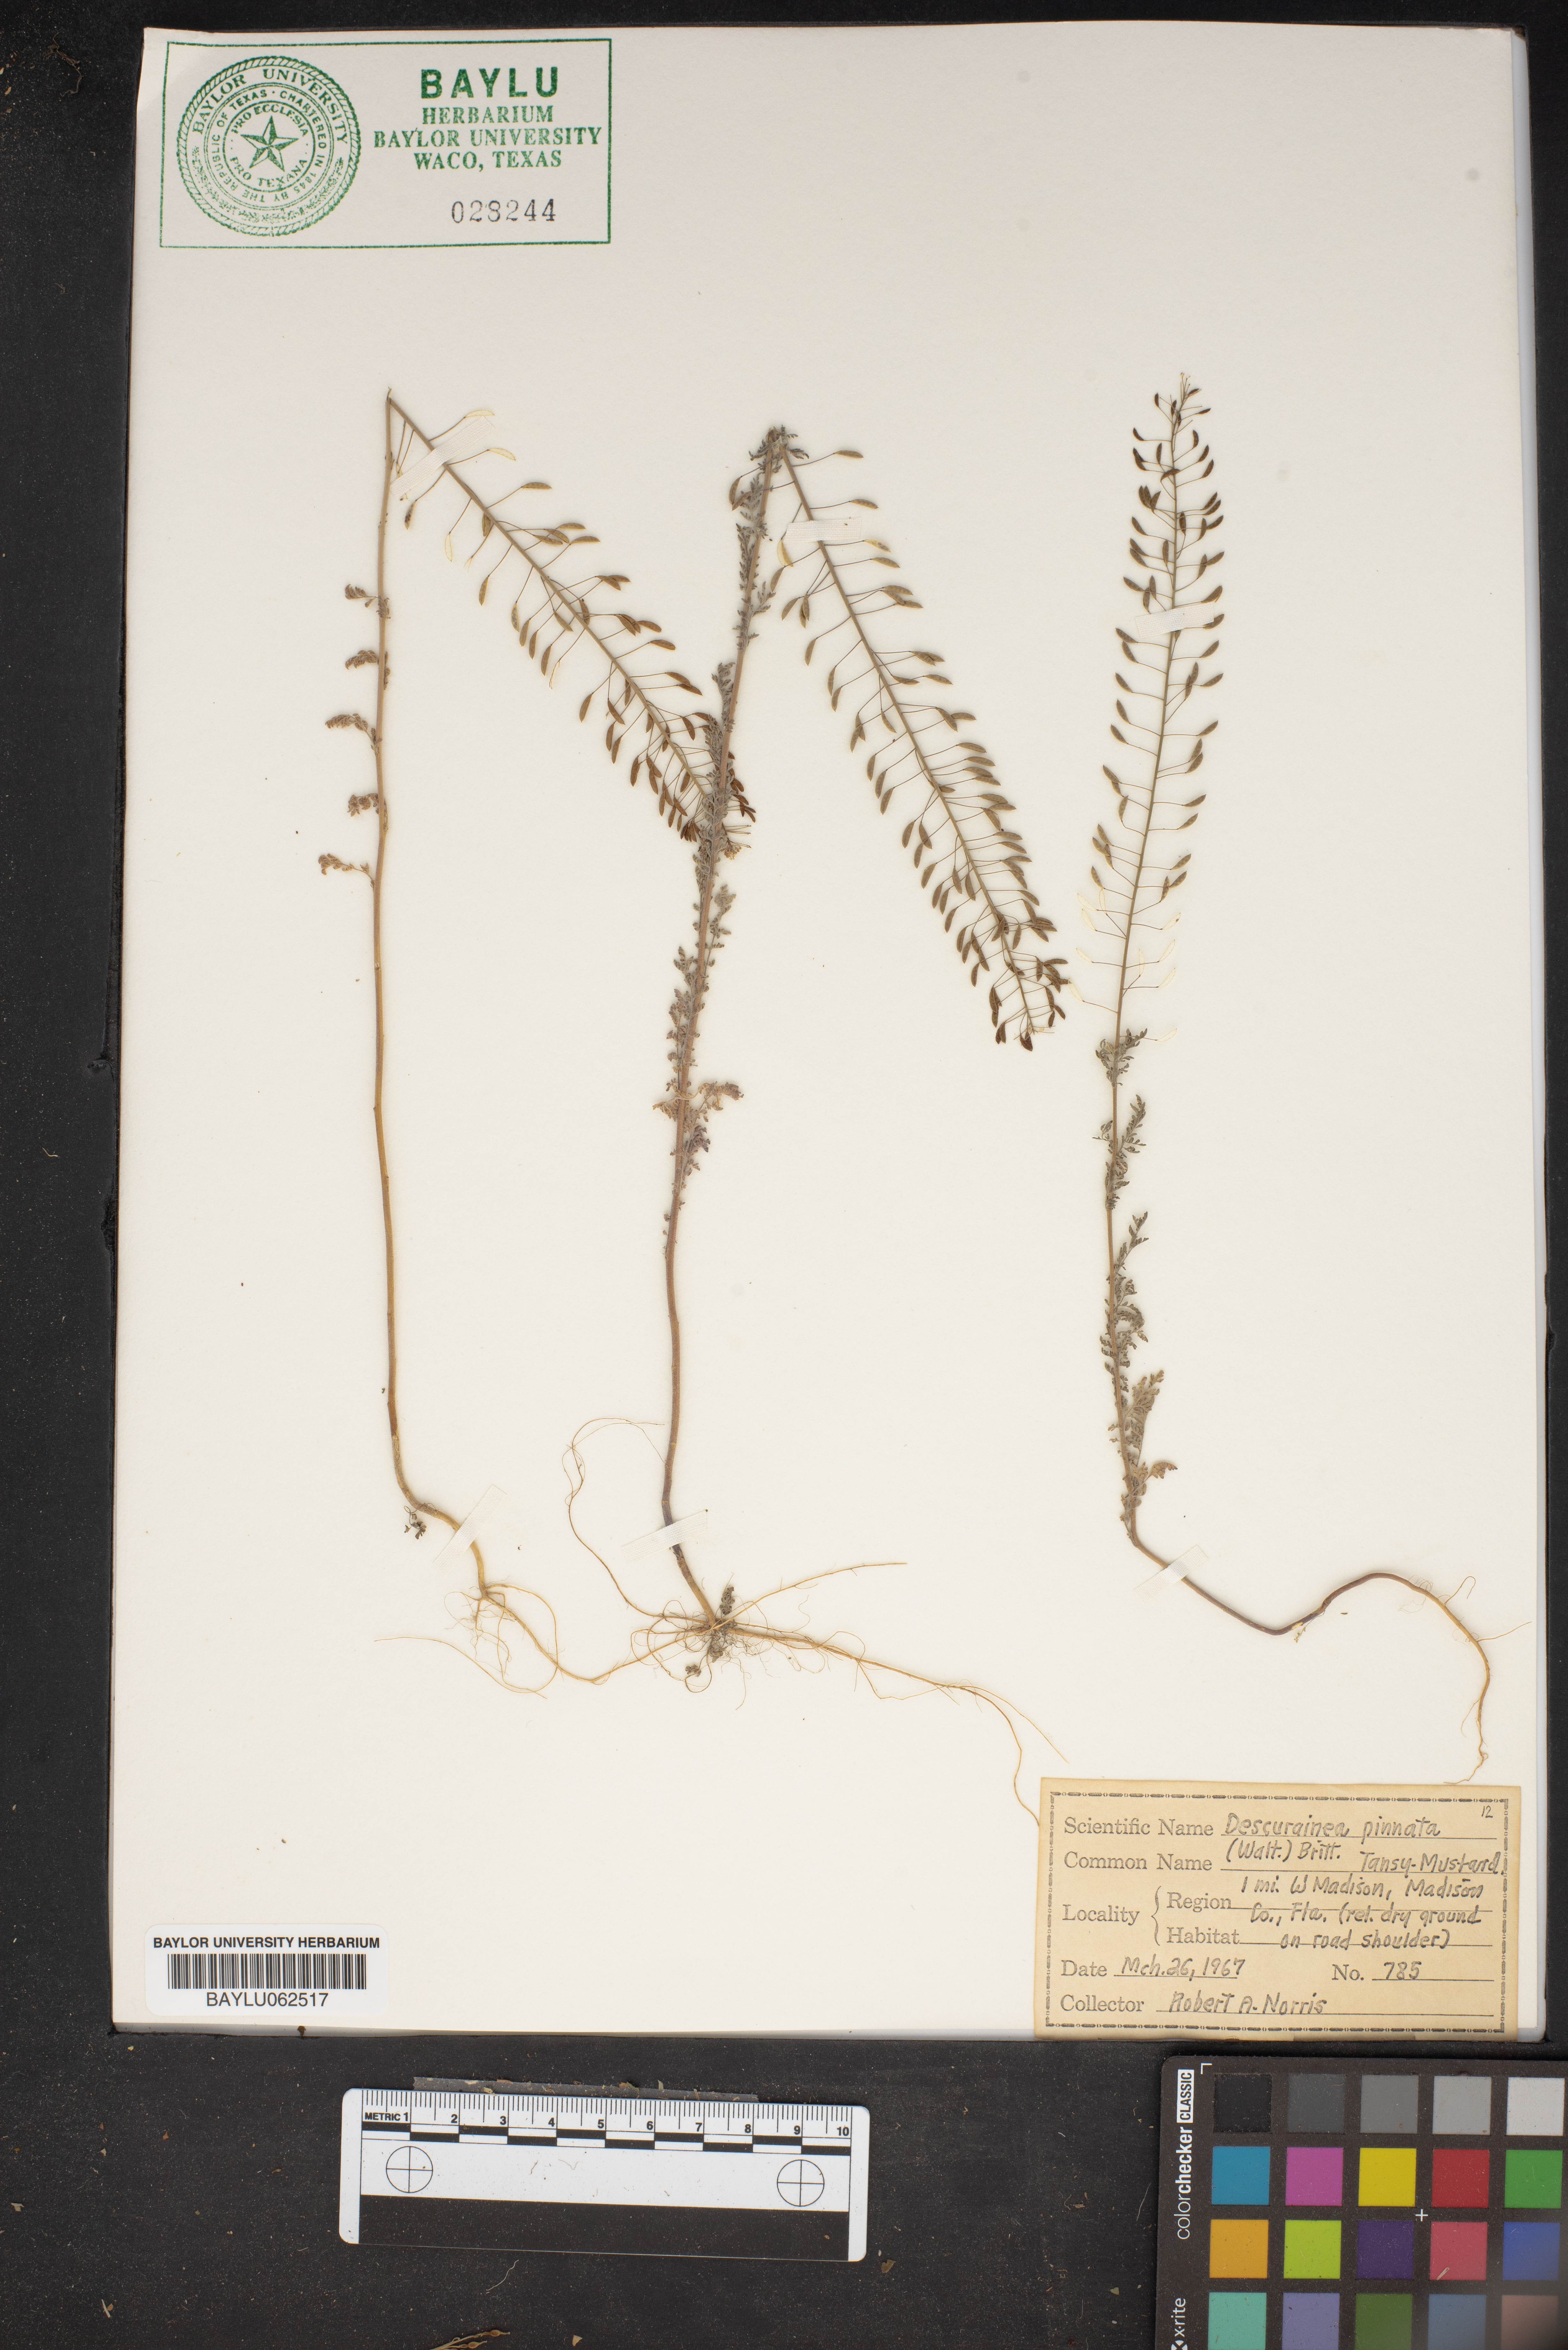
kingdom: Plantae
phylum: Tracheophyta
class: Magnoliopsida
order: Brassicales
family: Brassicaceae
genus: Descurainia
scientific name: Descurainia pinnata
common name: Western tansy mustard
